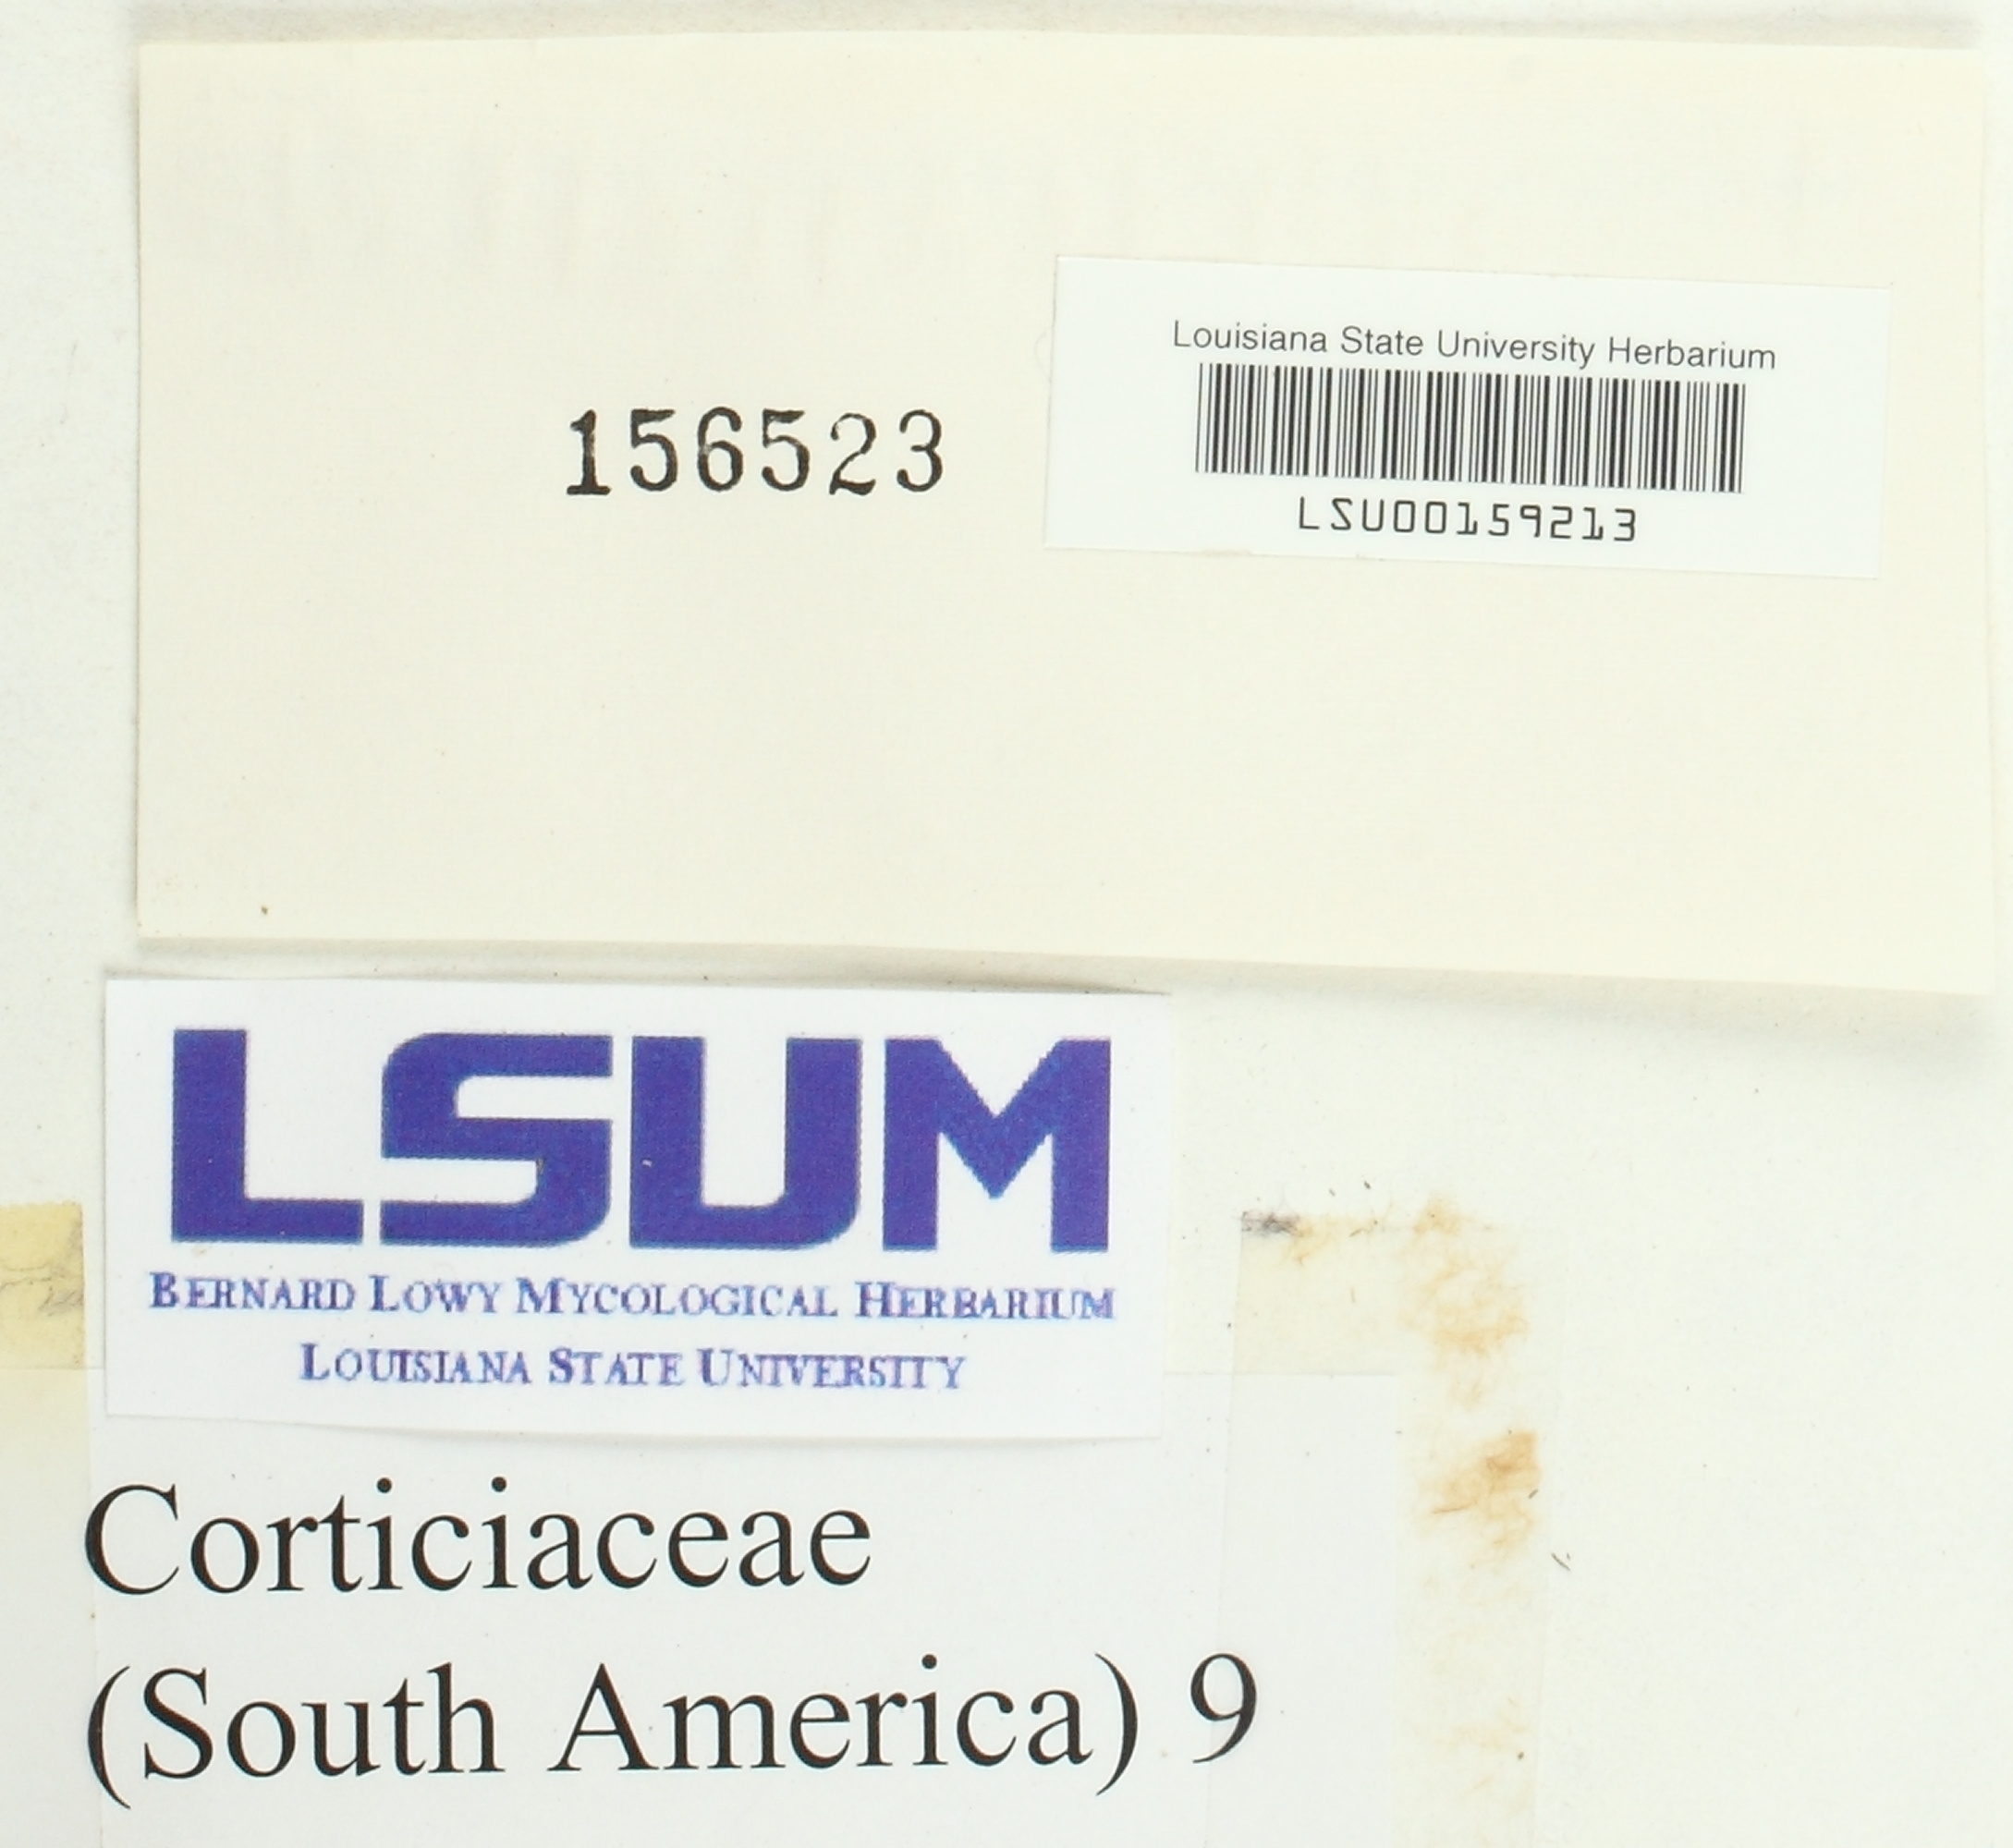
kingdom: Fungi
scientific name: Fungi
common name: Fungi
